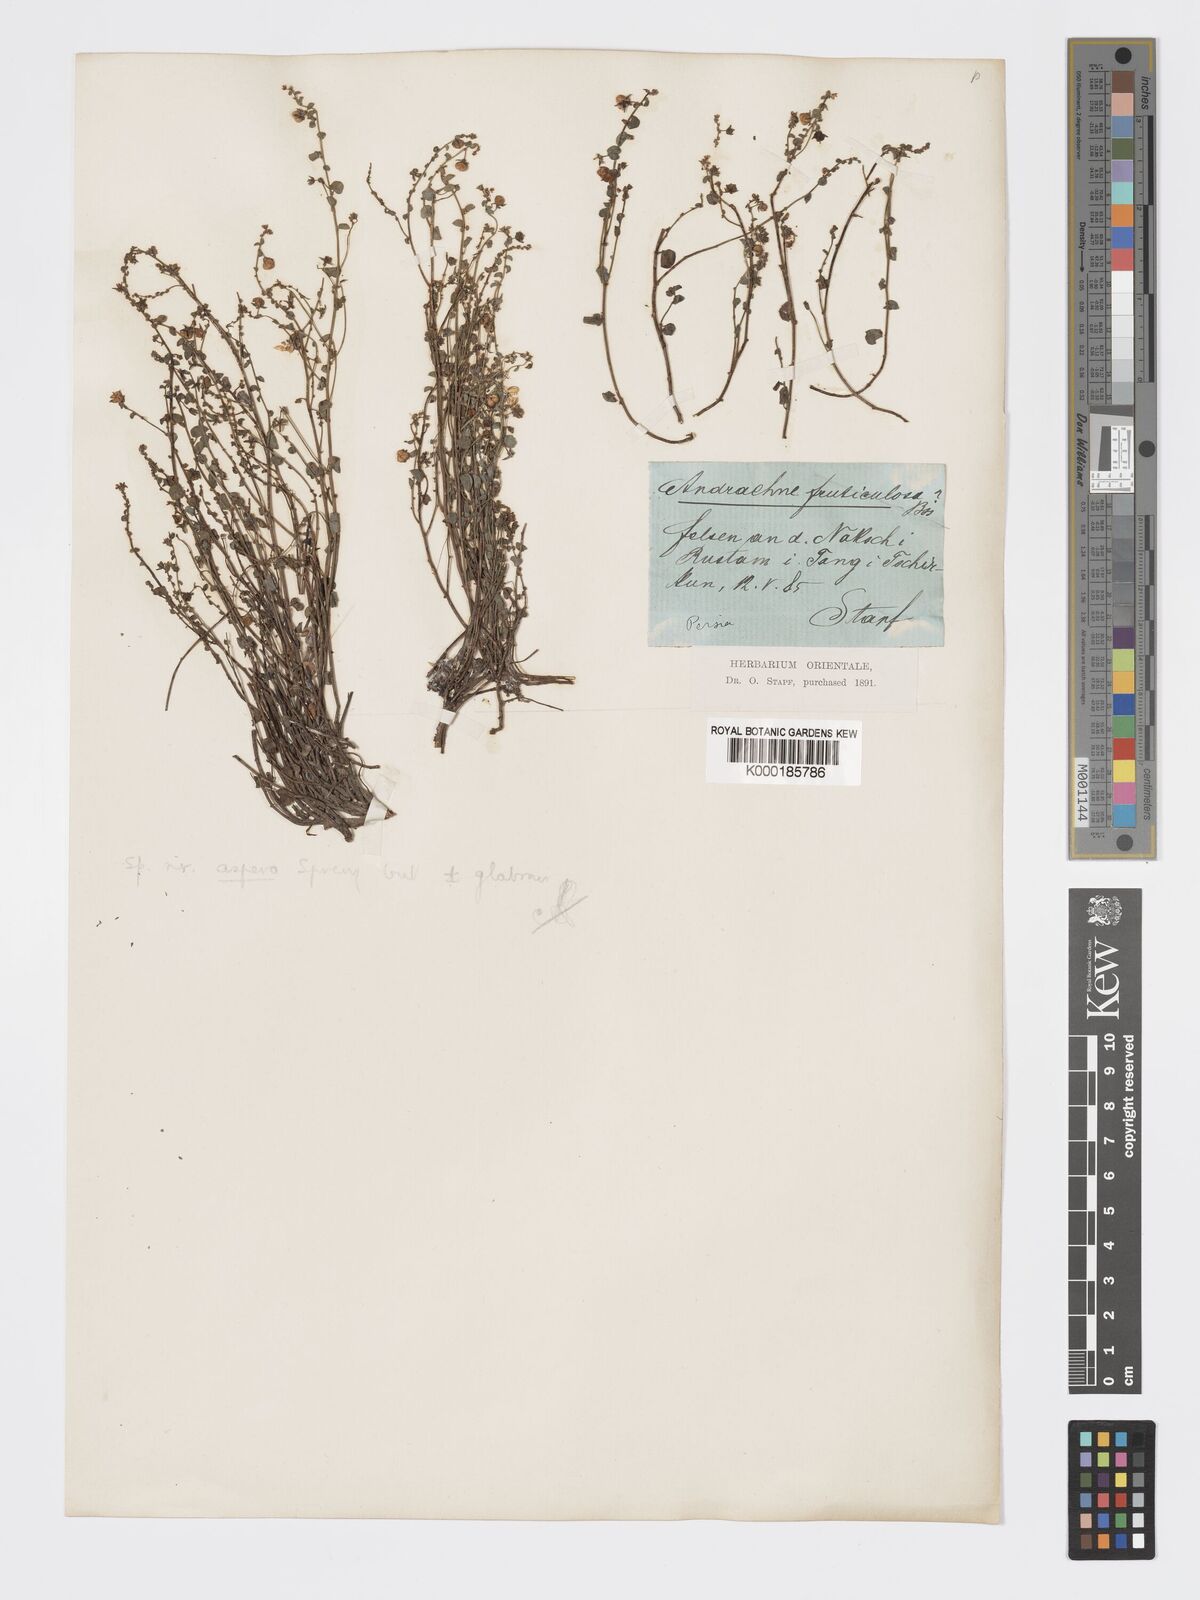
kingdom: Plantae
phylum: Tracheophyta
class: Magnoliopsida
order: Malpighiales
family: Phyllanthaceae
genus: Andrachne
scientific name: Andrachne aspera
